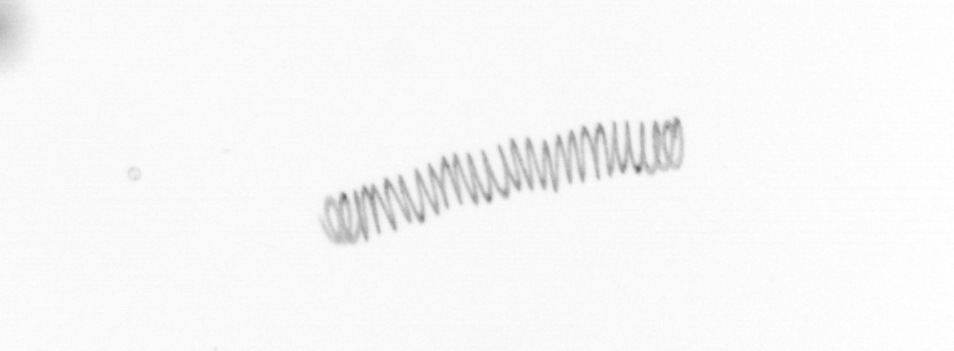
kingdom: Chromista
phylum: Ochrophyta
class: Bacillariophyceae
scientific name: Bacillariophyceae
